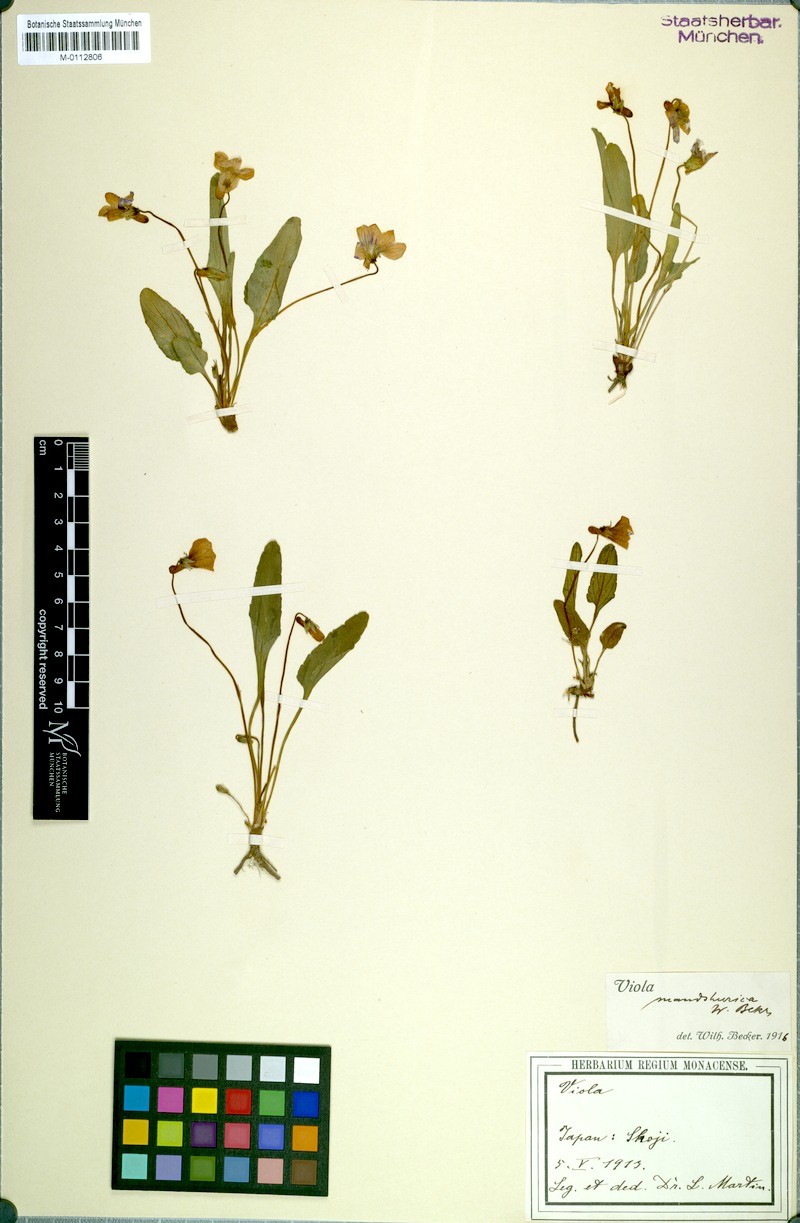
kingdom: Plantae
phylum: Tracheophyta
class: Magnoliopsida
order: Malpighiales
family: Violaceae
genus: Viola
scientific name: Viola mandshurica
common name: Manchuria violet
